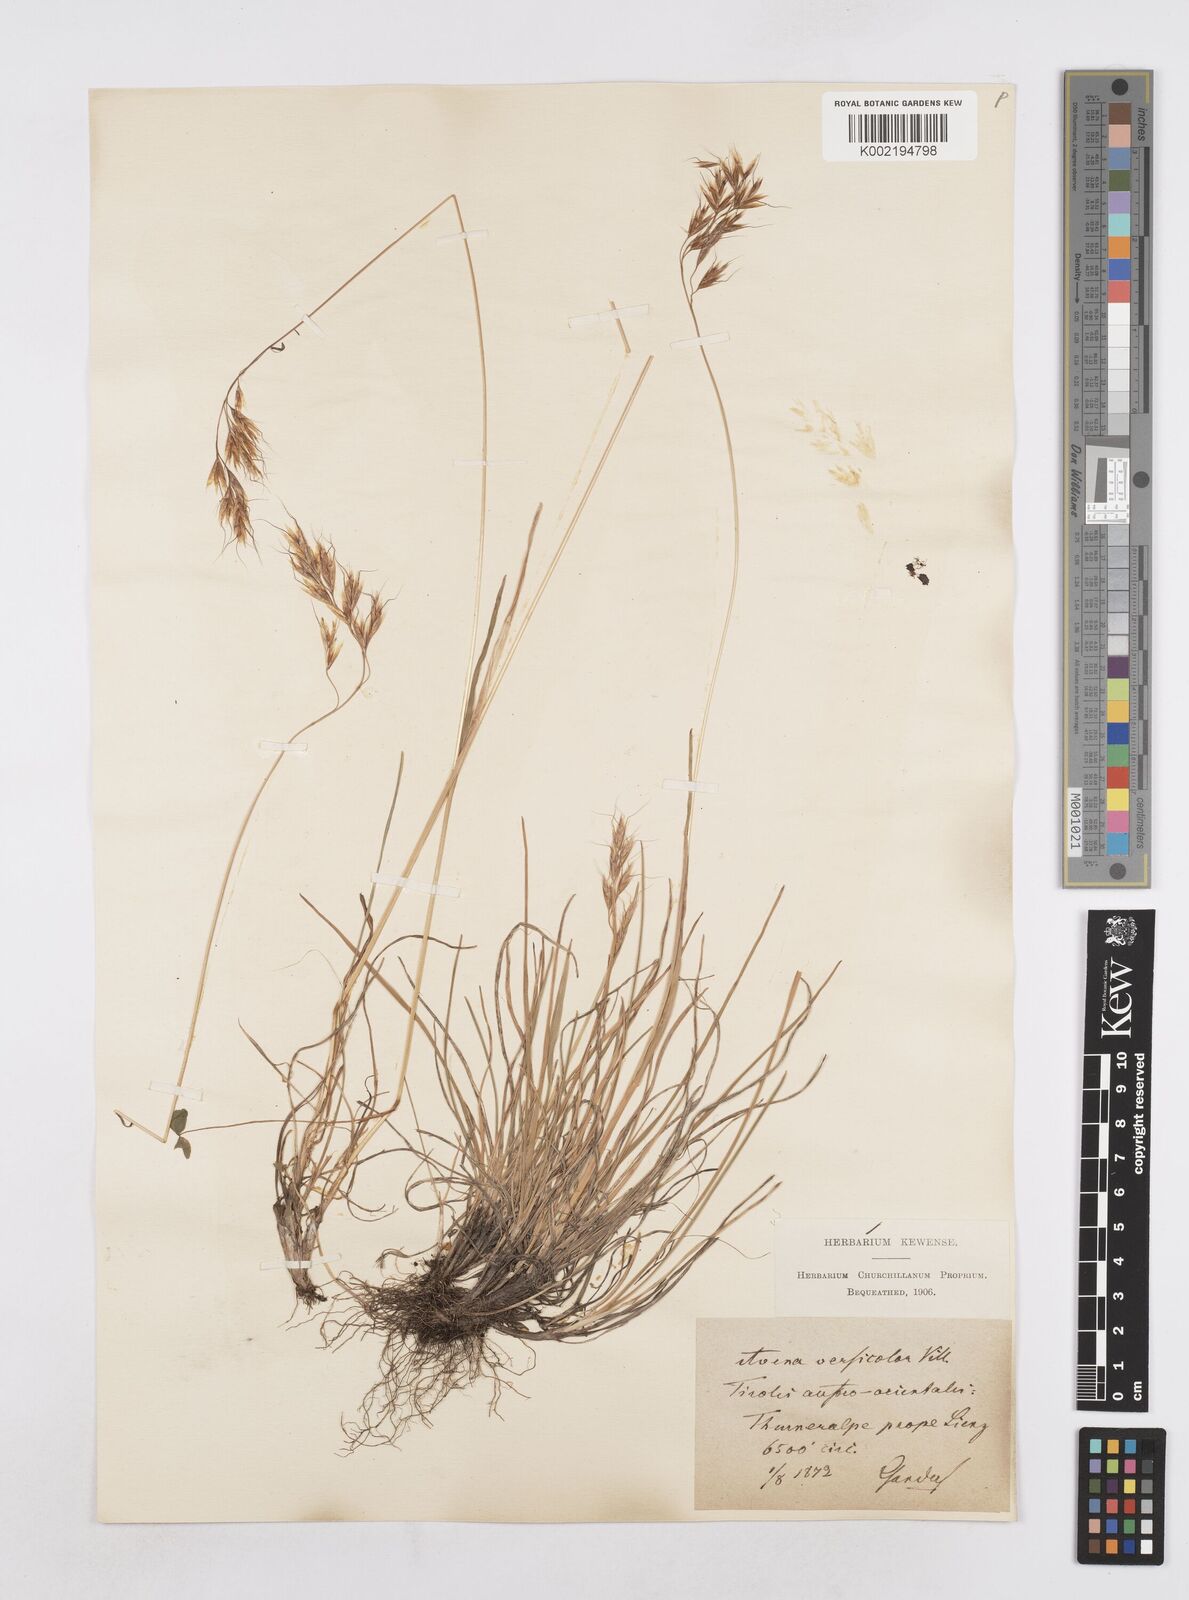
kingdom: Plantae
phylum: Tracheophyta
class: Liliopsida
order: Poales
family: Poaceae
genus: Helictochloa
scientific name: Helictochloa versicolor
